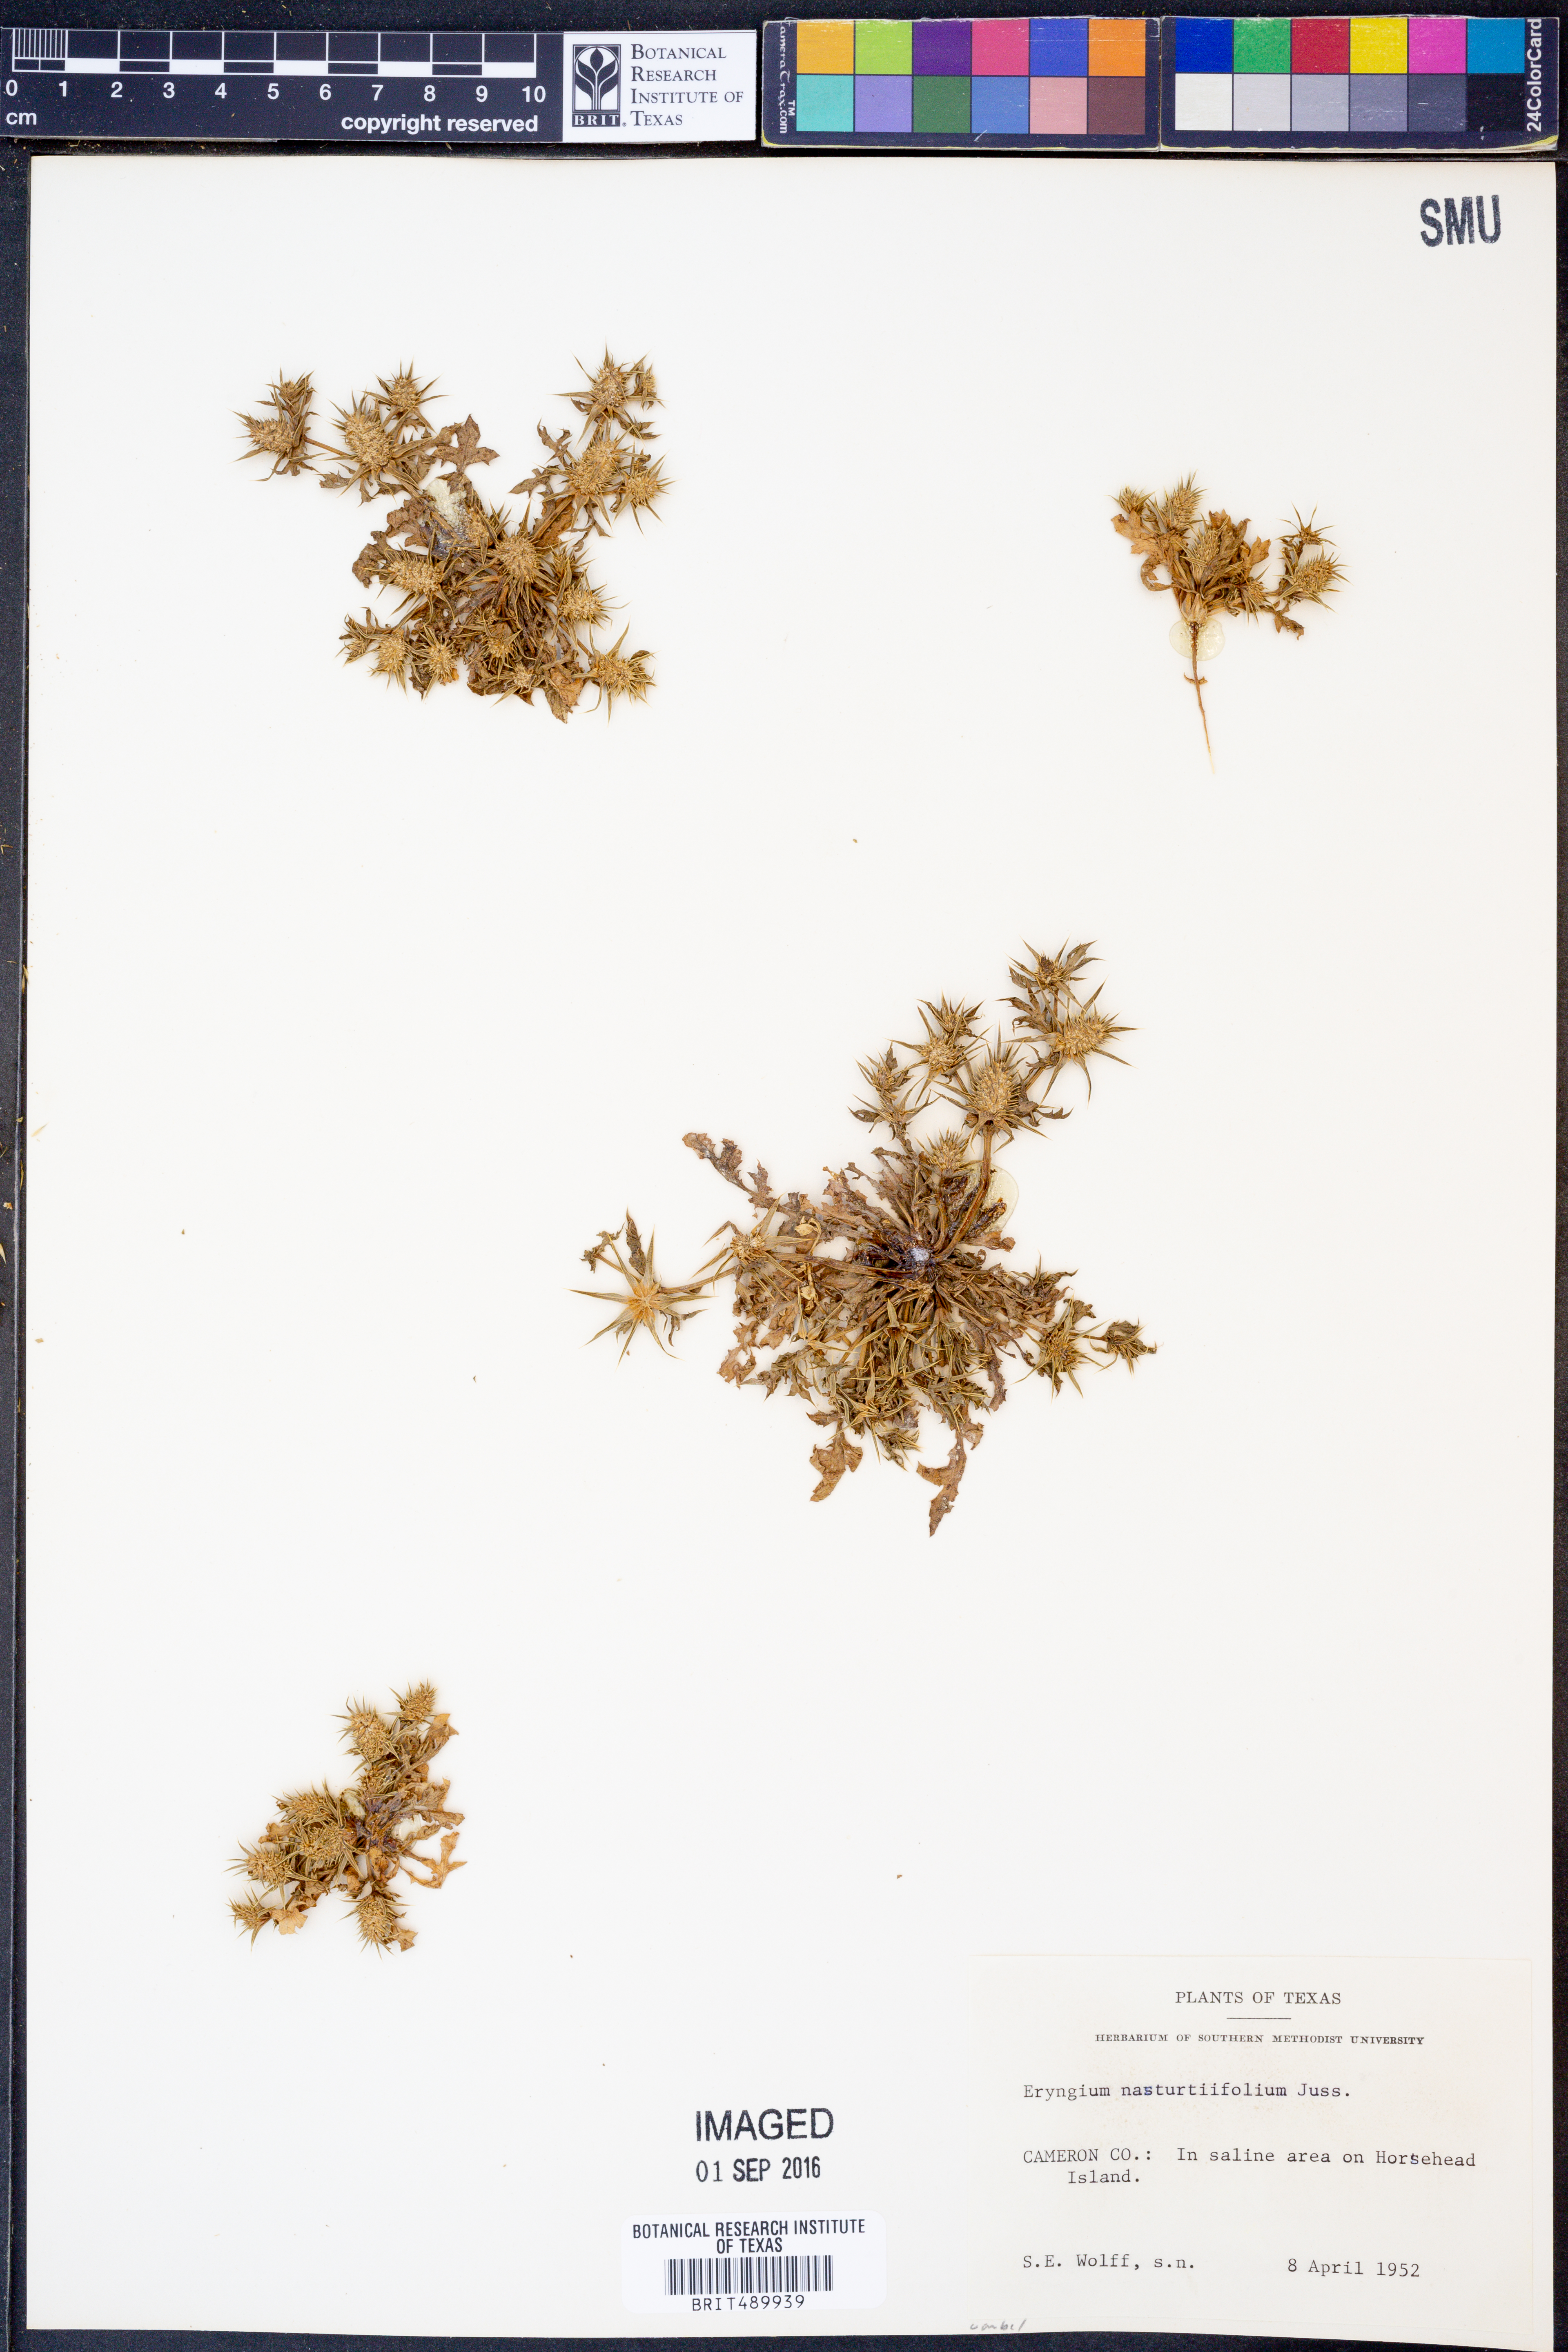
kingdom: Plantae
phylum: Tracheophyta
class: Magnoliopsida
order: Apiales
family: Apiaceae
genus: Eryngium
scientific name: Eryngium nasturtiifolium
